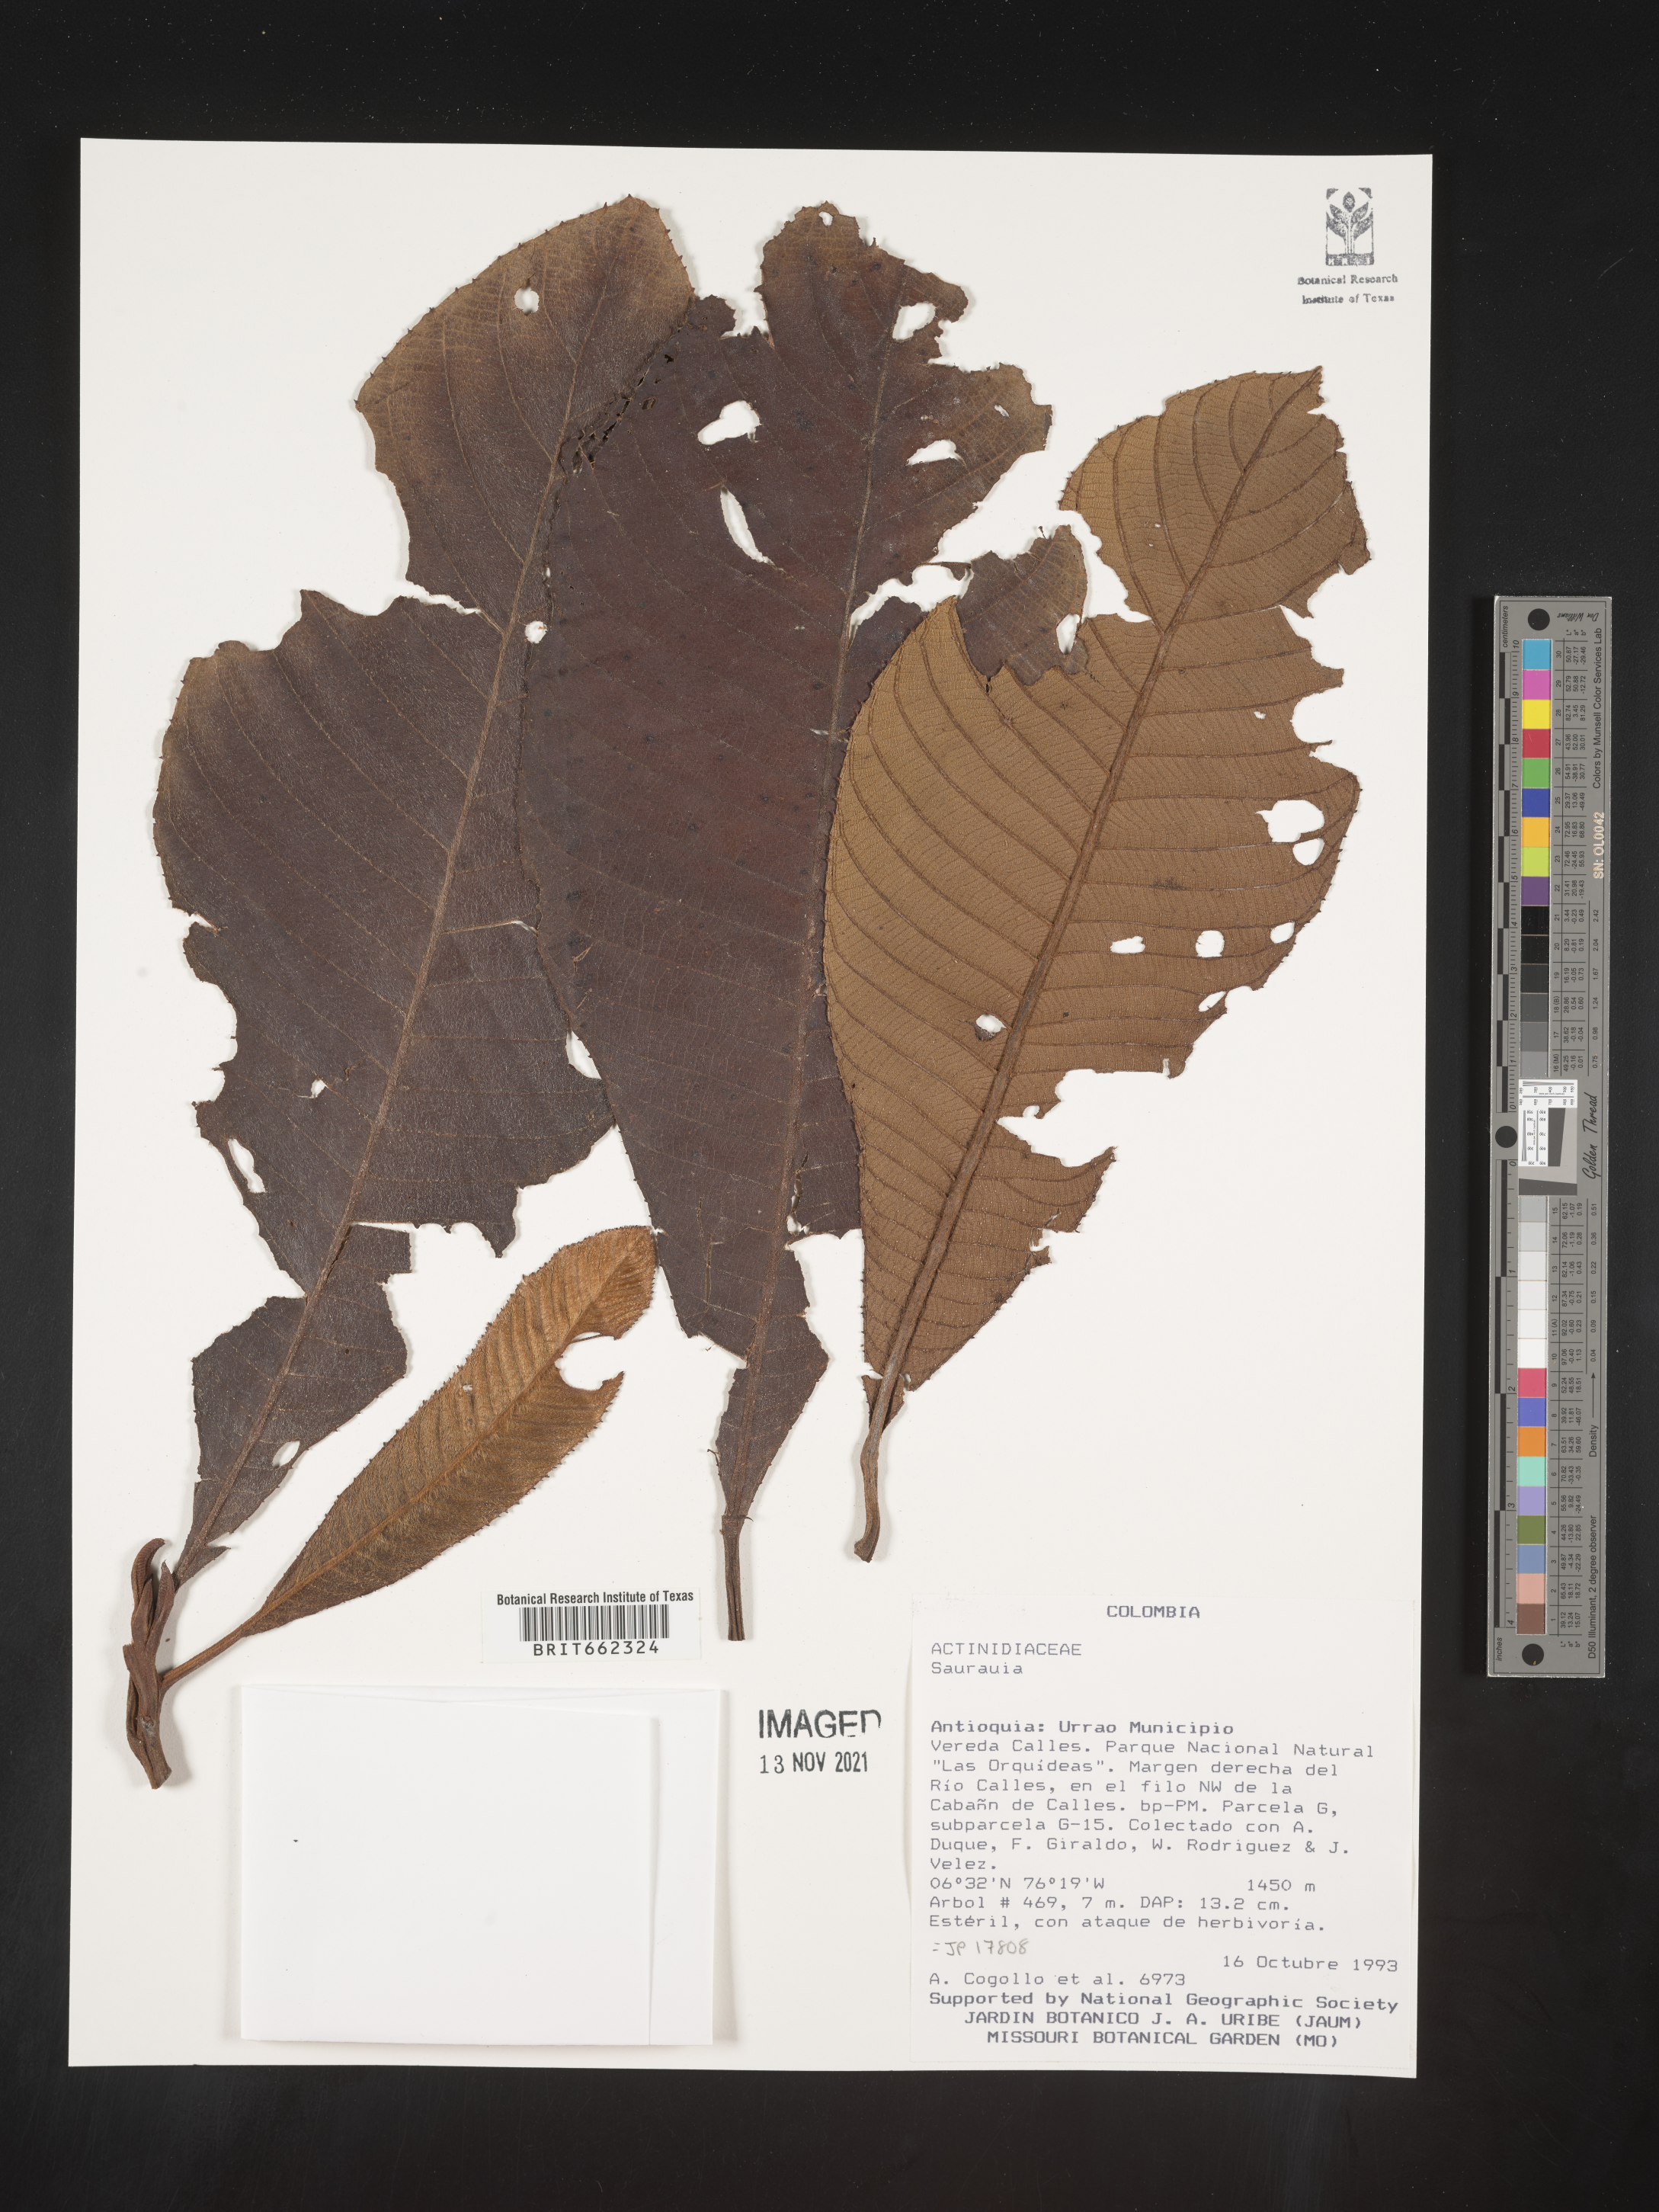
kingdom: Plantae
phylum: Tracheophyta
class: Magnoliopsida
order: Ericales
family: Actinidiaceae
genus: Saurauia
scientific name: Saurauia
